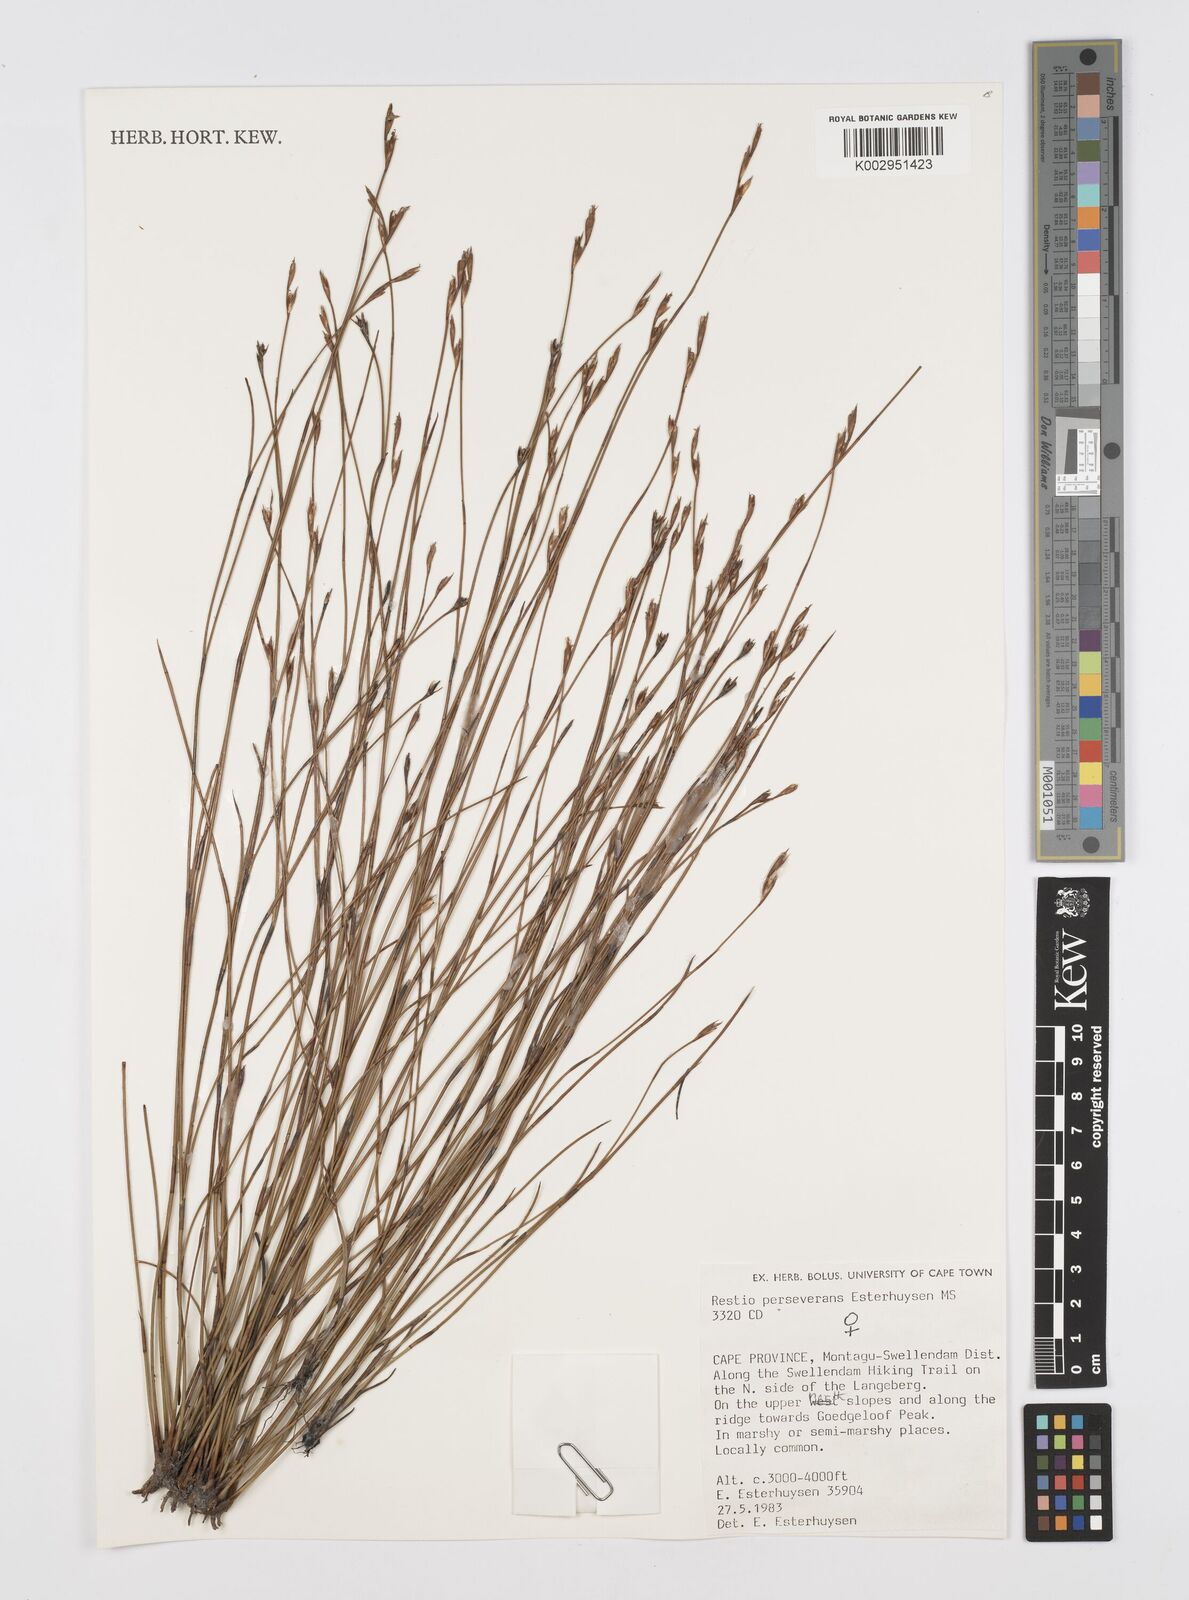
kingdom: Plantae
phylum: Tracheophyta
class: Liliopsida
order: Poales
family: Restionaceae
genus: Restio
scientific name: Restio perseverans
